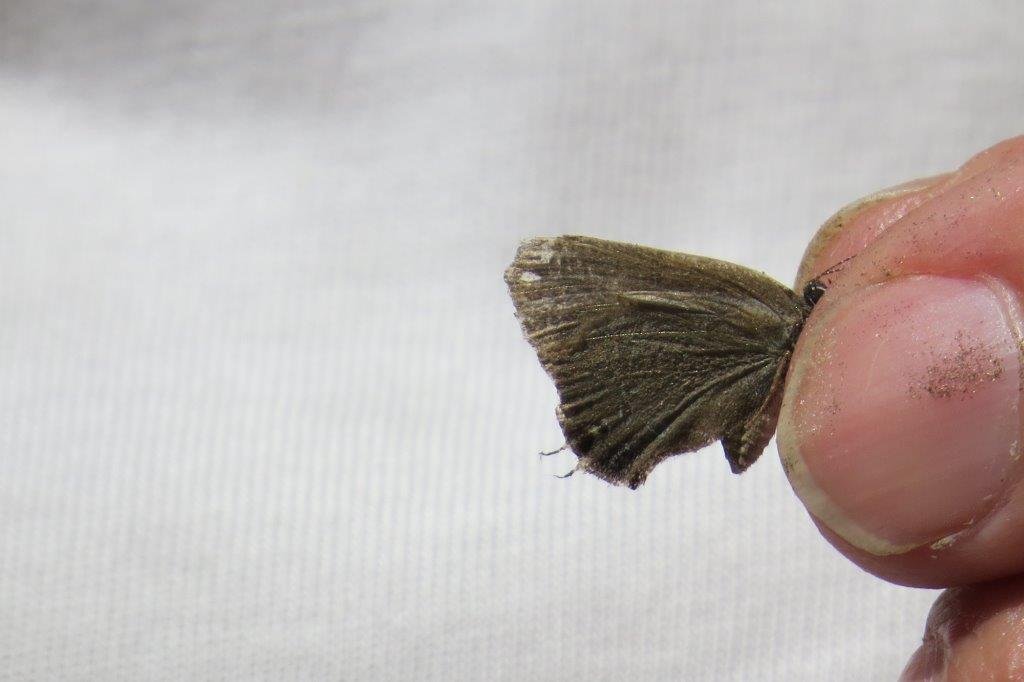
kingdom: Animalia
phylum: Arthropoda
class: Insecta
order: Lepidoptera
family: Lycaenidae
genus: Elkalyce
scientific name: Elkalyce comyntas
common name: Eastern Tailed-Blue
